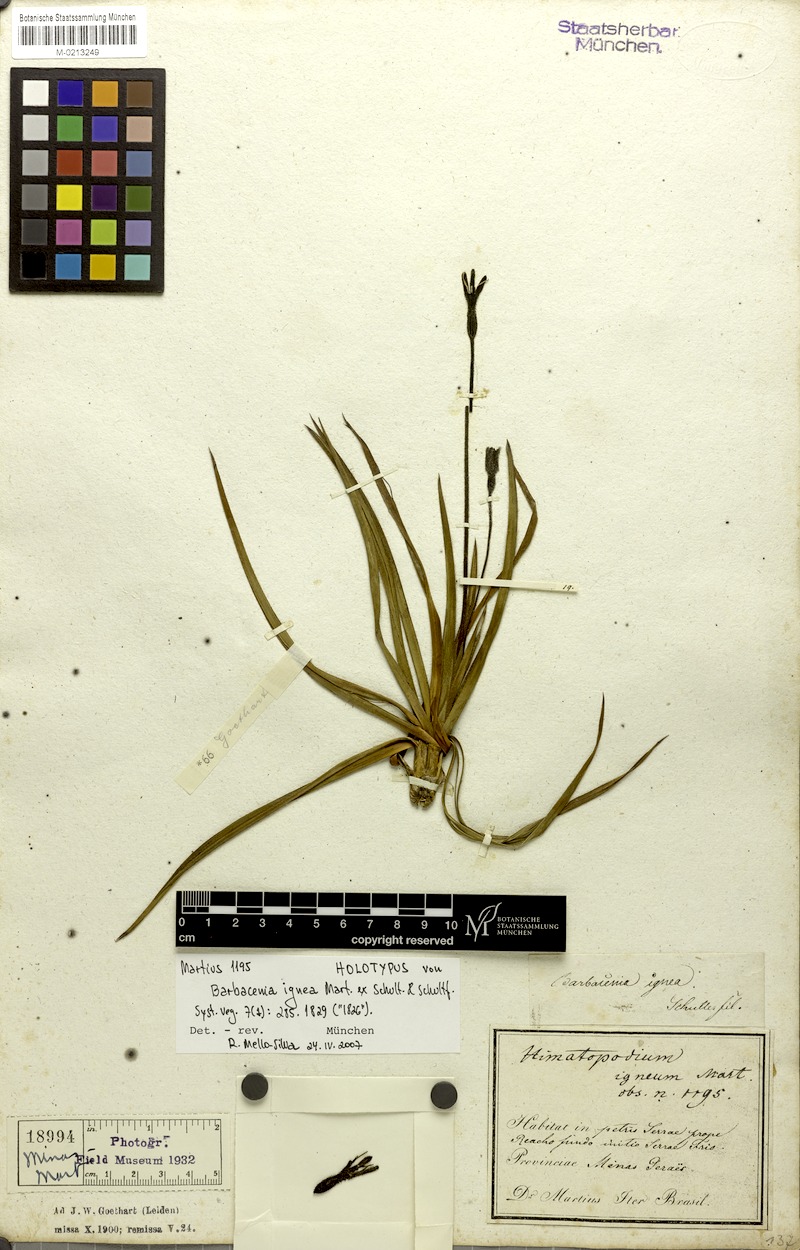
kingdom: Plantae
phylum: Tracheophyta
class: Liliopsida
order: Pandanales
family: Velloziaceae
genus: Barbacenia
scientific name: Barbacenia ignea
